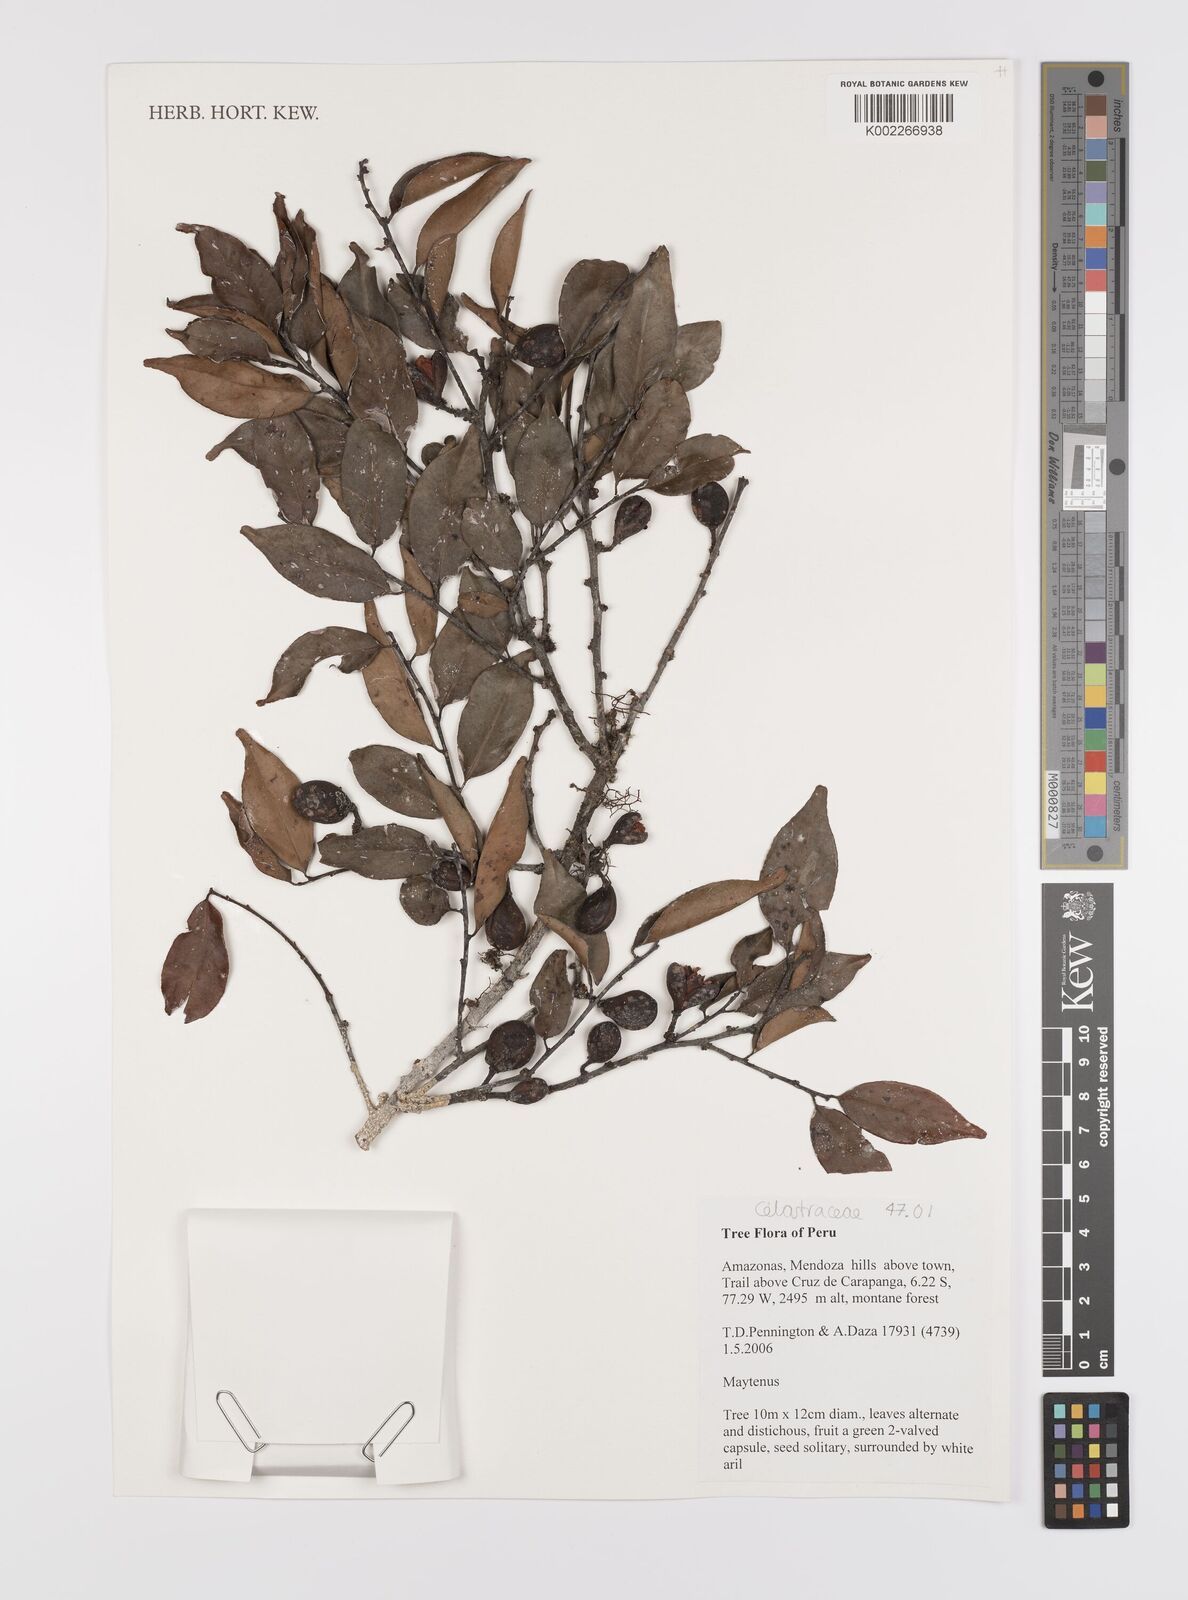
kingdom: Plantae
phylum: Tracheophyta
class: Magnoliopsida
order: Celastrales
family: Celastraceae
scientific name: Celastraceae
